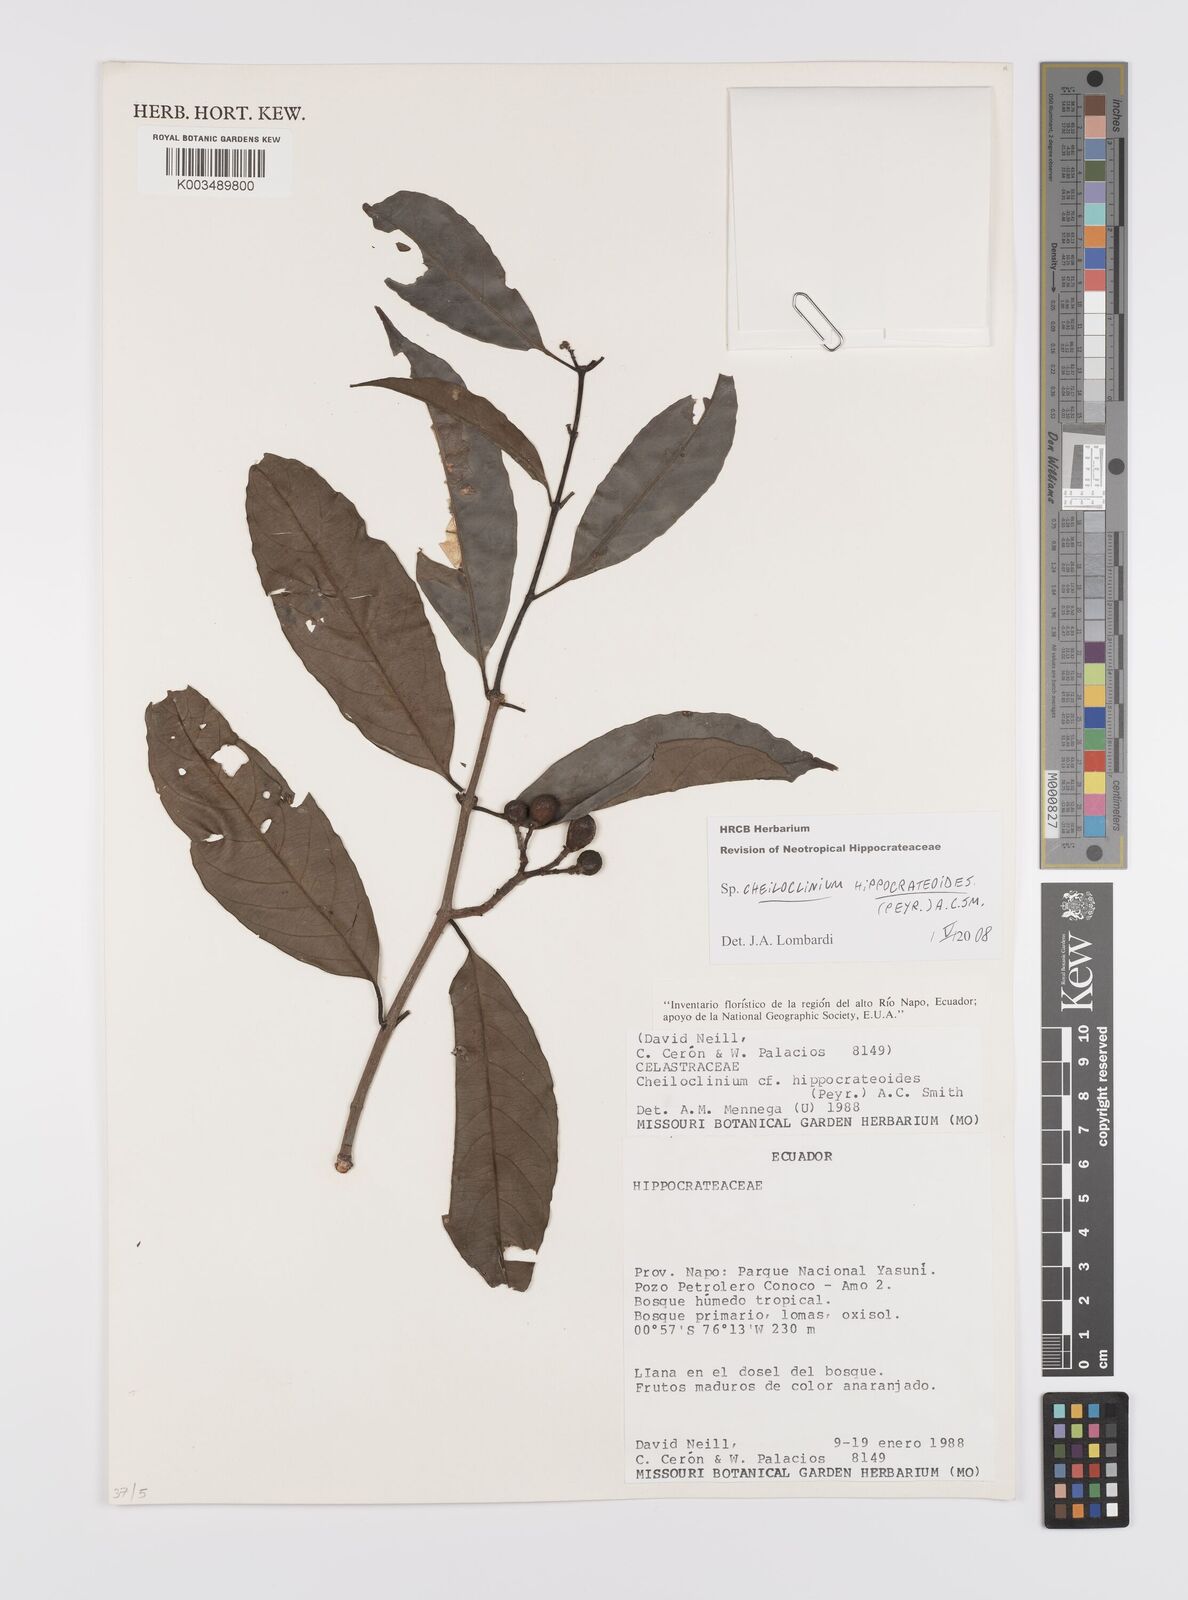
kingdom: Plantae
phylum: Tracheophyta
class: Magnoliopsida
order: Celastrales
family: Celastraceae
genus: Cheiloclinium
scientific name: Cheiloclinium hippocrateoides
